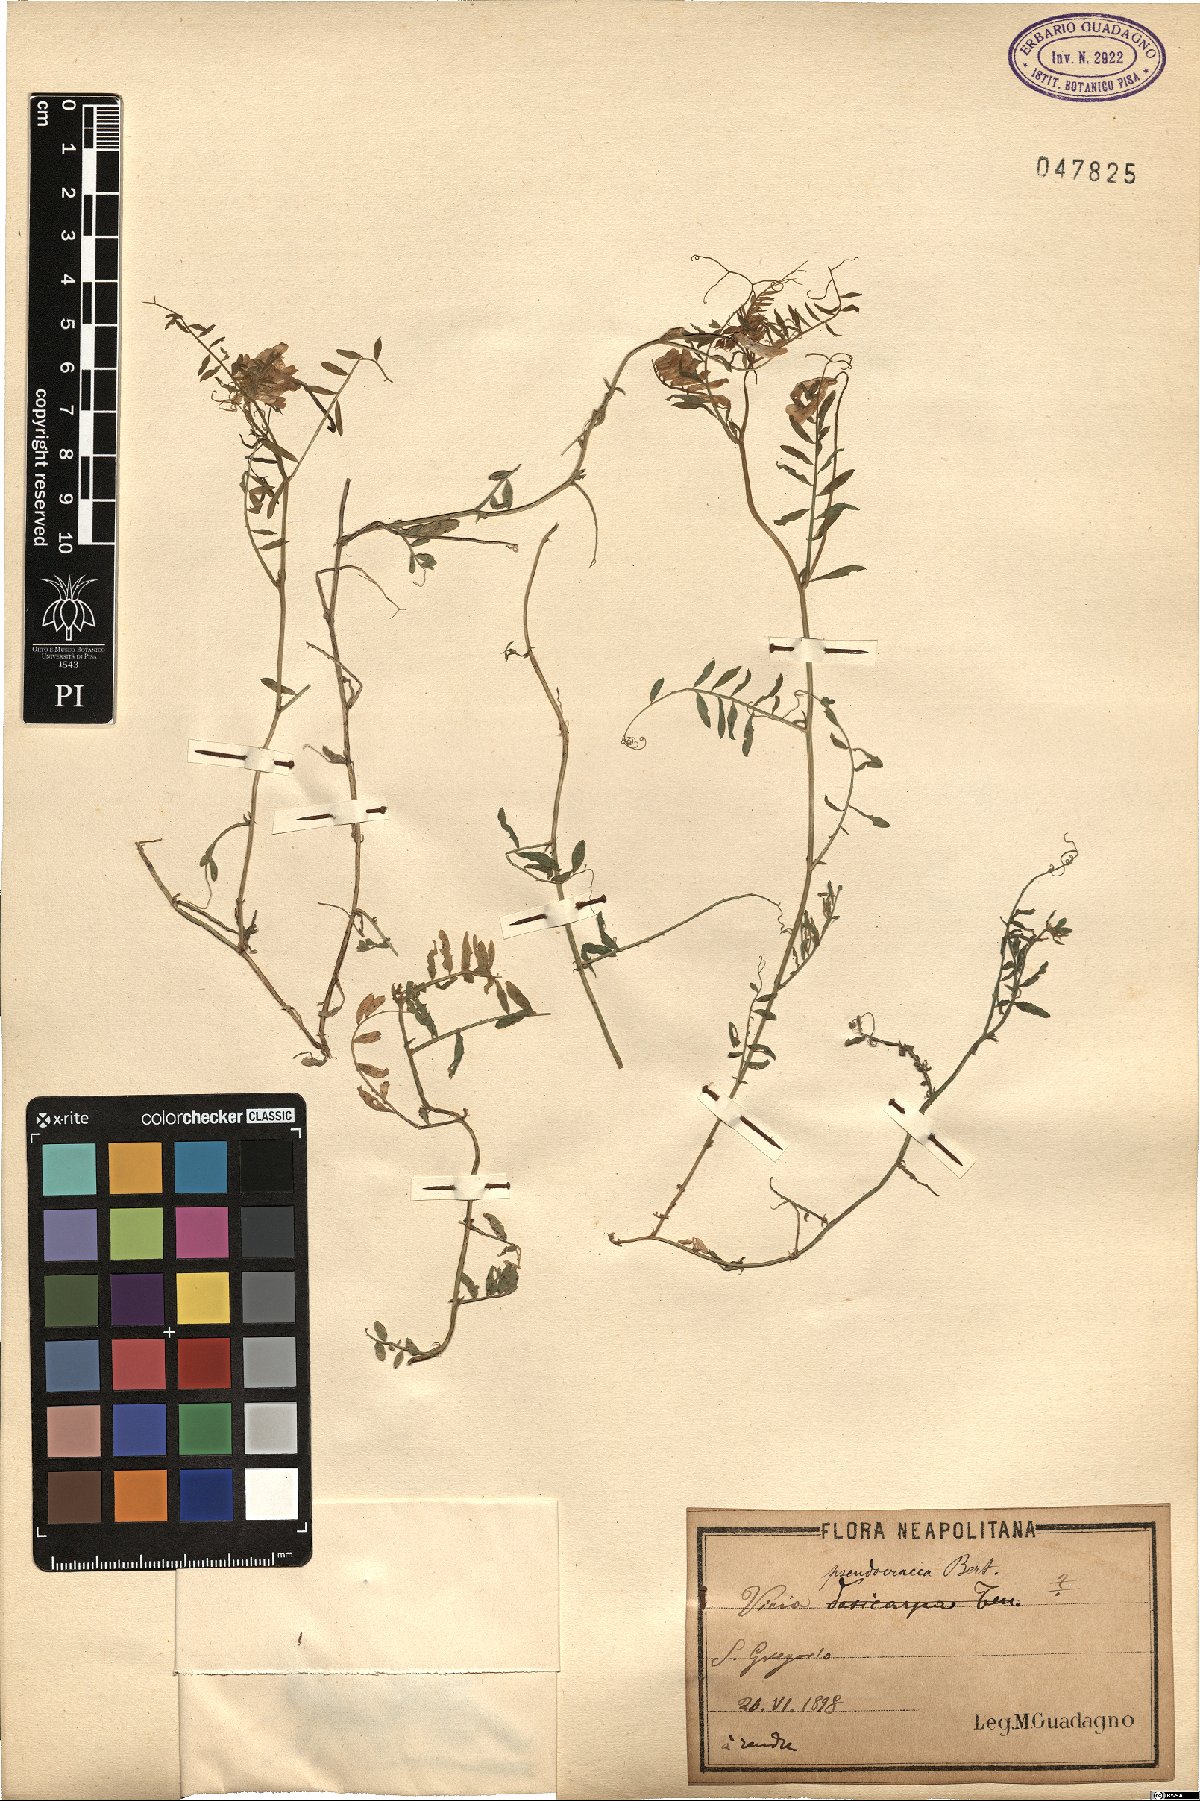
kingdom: Plantae
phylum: Tracheophyta
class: Magnoliopsida
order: Fabales
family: Fabaceae
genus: Vicia
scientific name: Vicia villosa
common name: Fodder vetch
